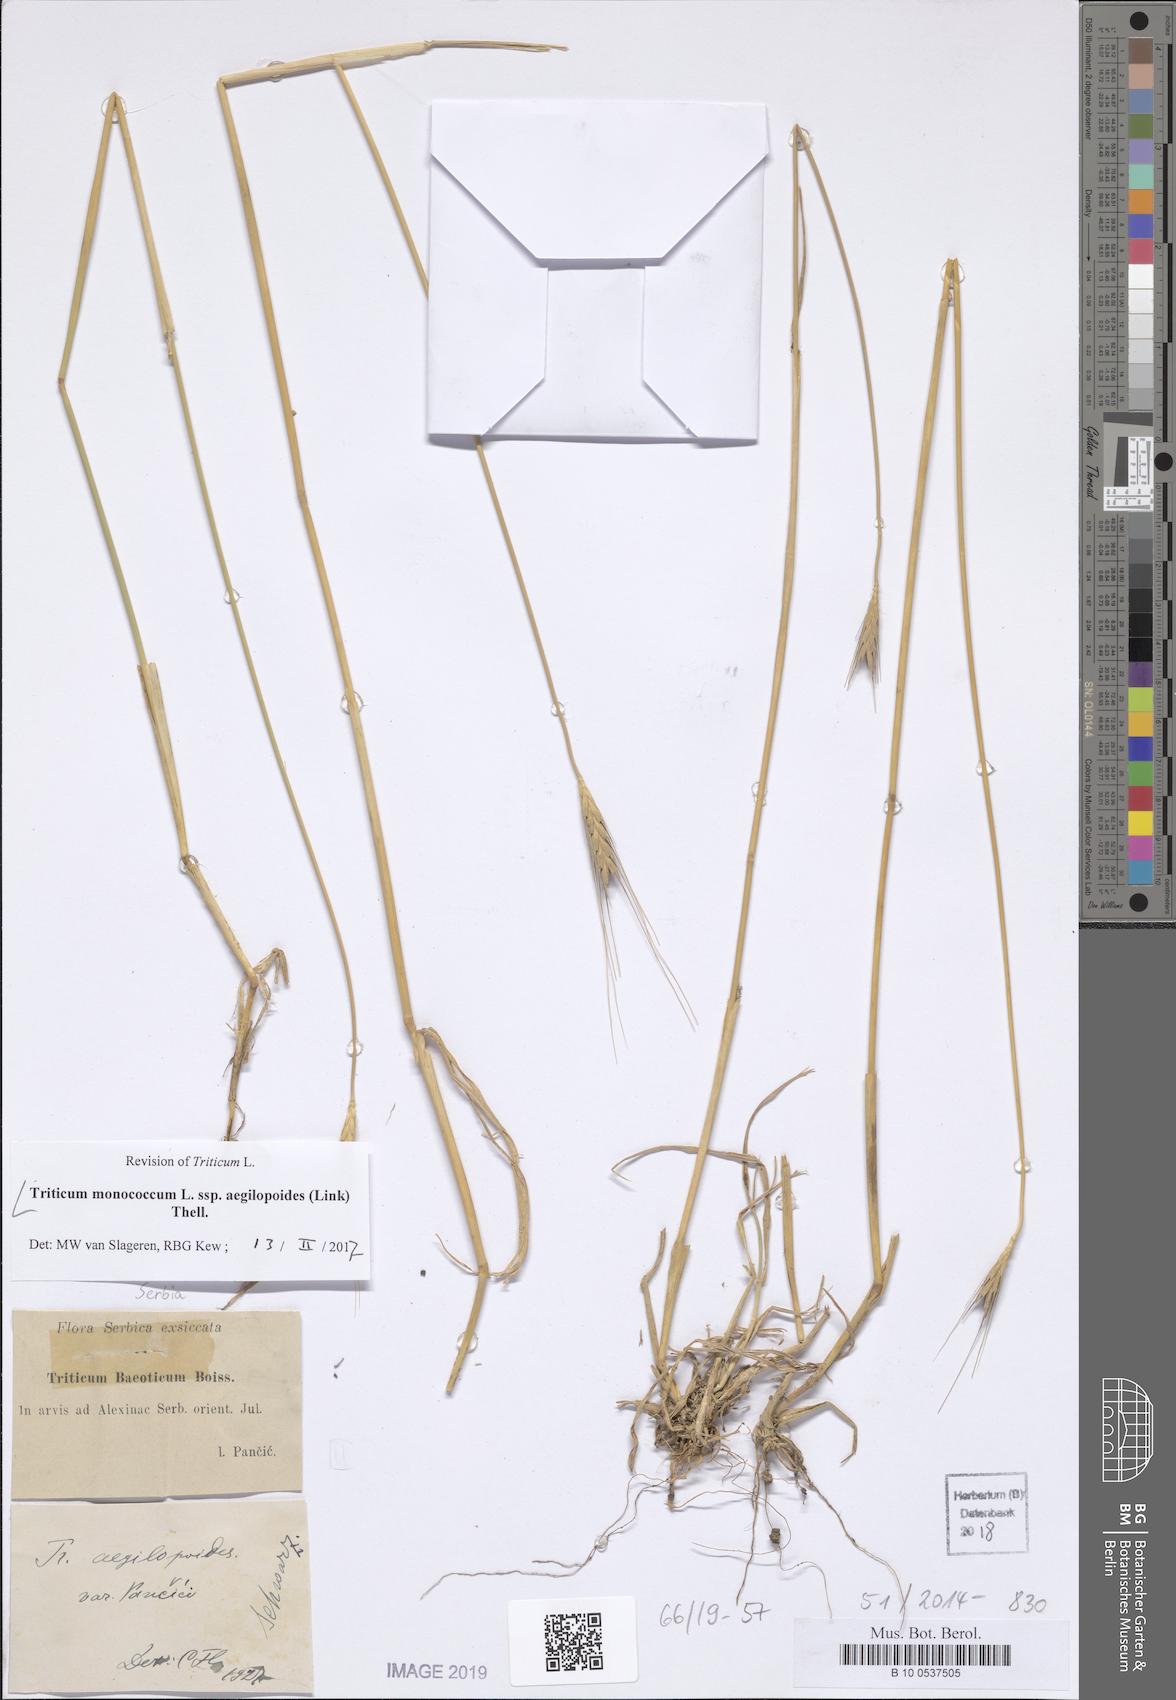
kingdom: Plantae
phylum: Tracheophyta
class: Liliopsida
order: Poales
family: Poaceae
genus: Triticum
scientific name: Triticum monococcum
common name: Einkorn
